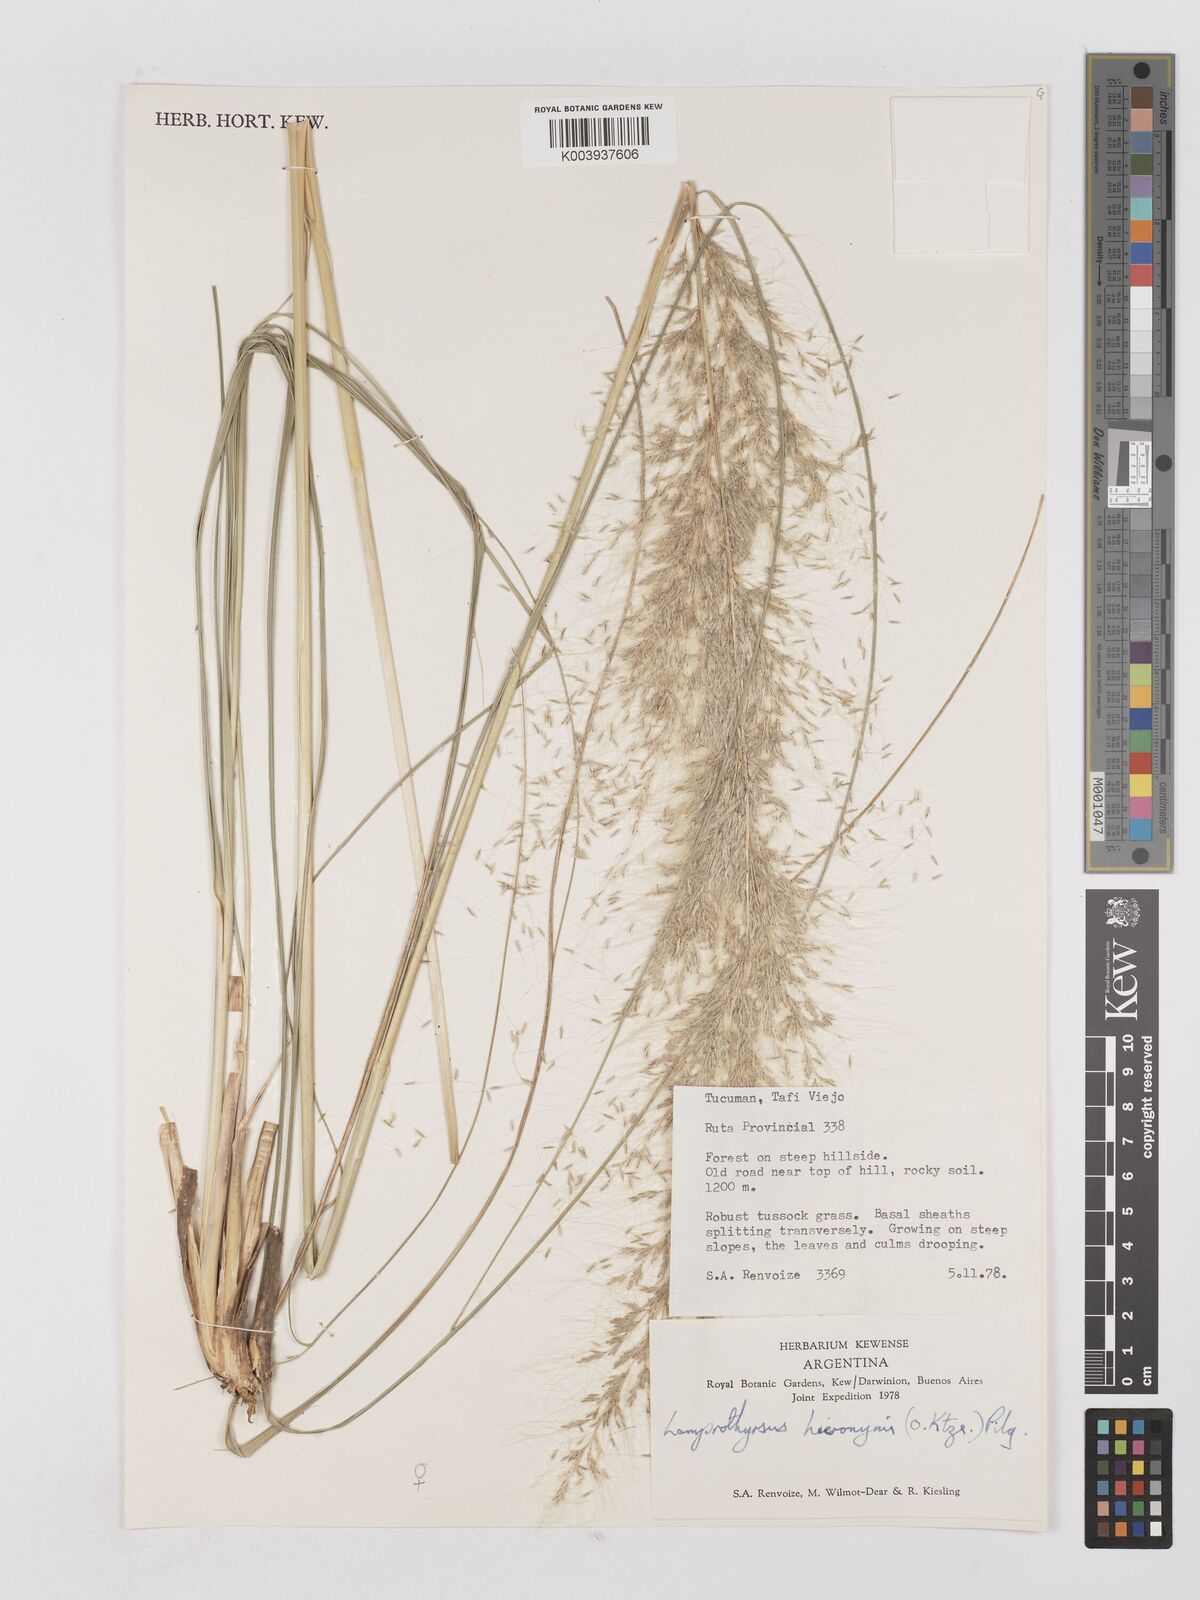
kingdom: Plantae
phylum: Tracheophyta
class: Liliopsida
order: Poales
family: Poaceae
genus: Cortaderia
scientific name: Cortaderia hieronymi
